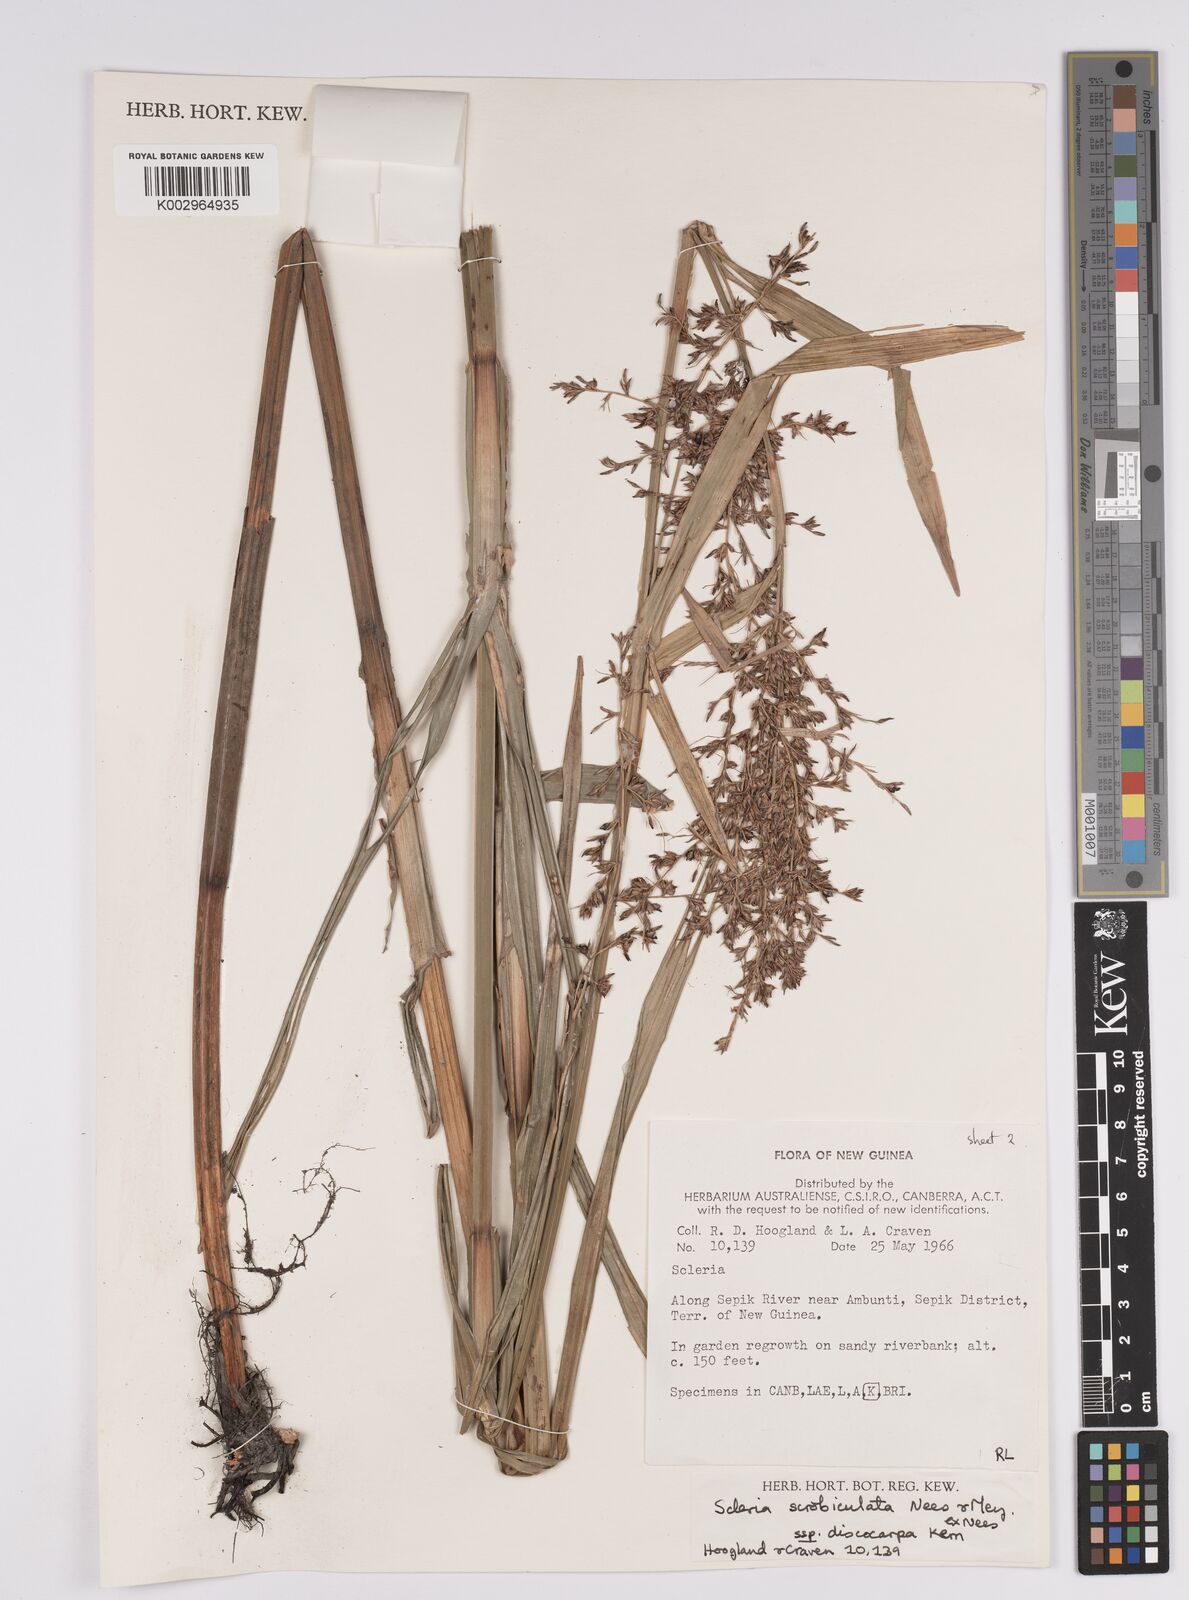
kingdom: Plantae
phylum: Tracheophyta
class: Liliopsida
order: Poales
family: Cyperaceae
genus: Scleria
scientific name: Scleria scrobiculata
